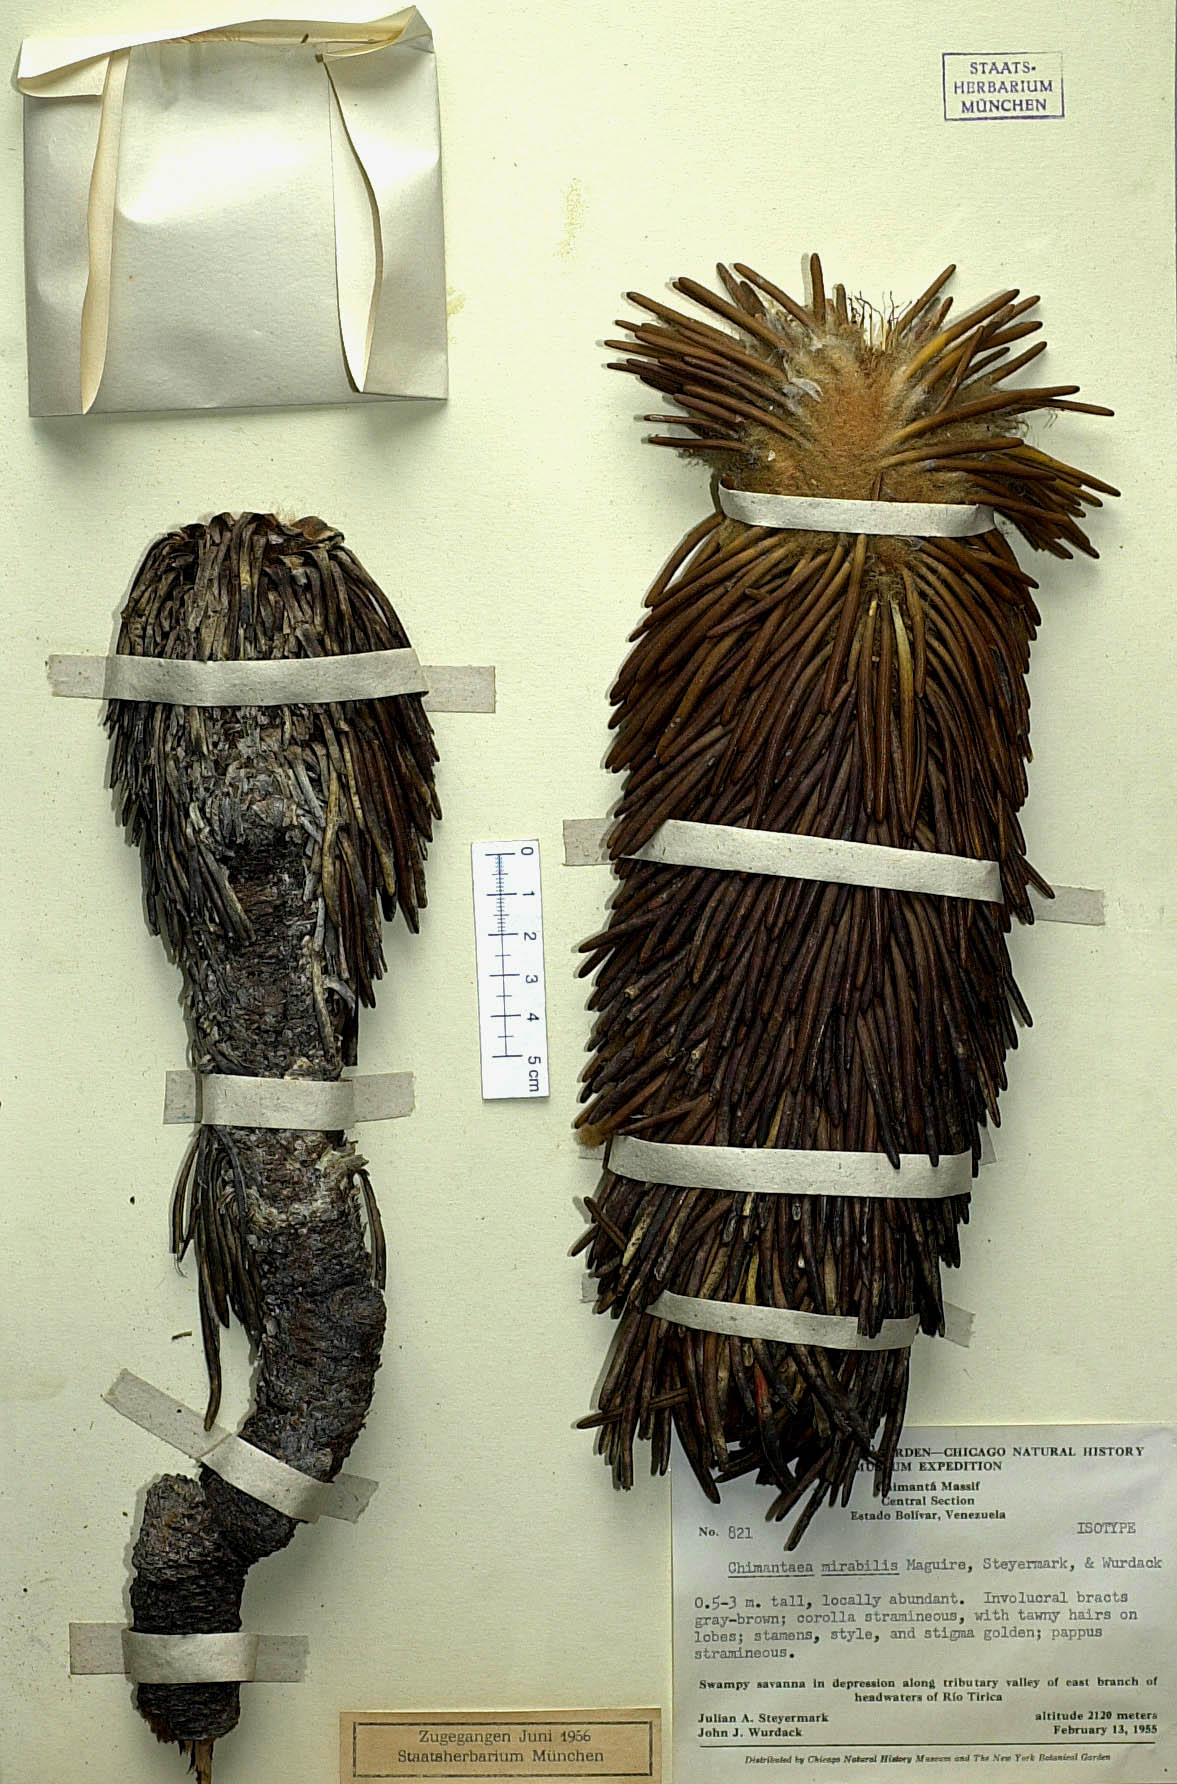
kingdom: Plantae
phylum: Tracheophyta
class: Magnoliopsida
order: Asterales
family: Asteraceae
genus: Chimantaea
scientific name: Chimantaea mirabilis
